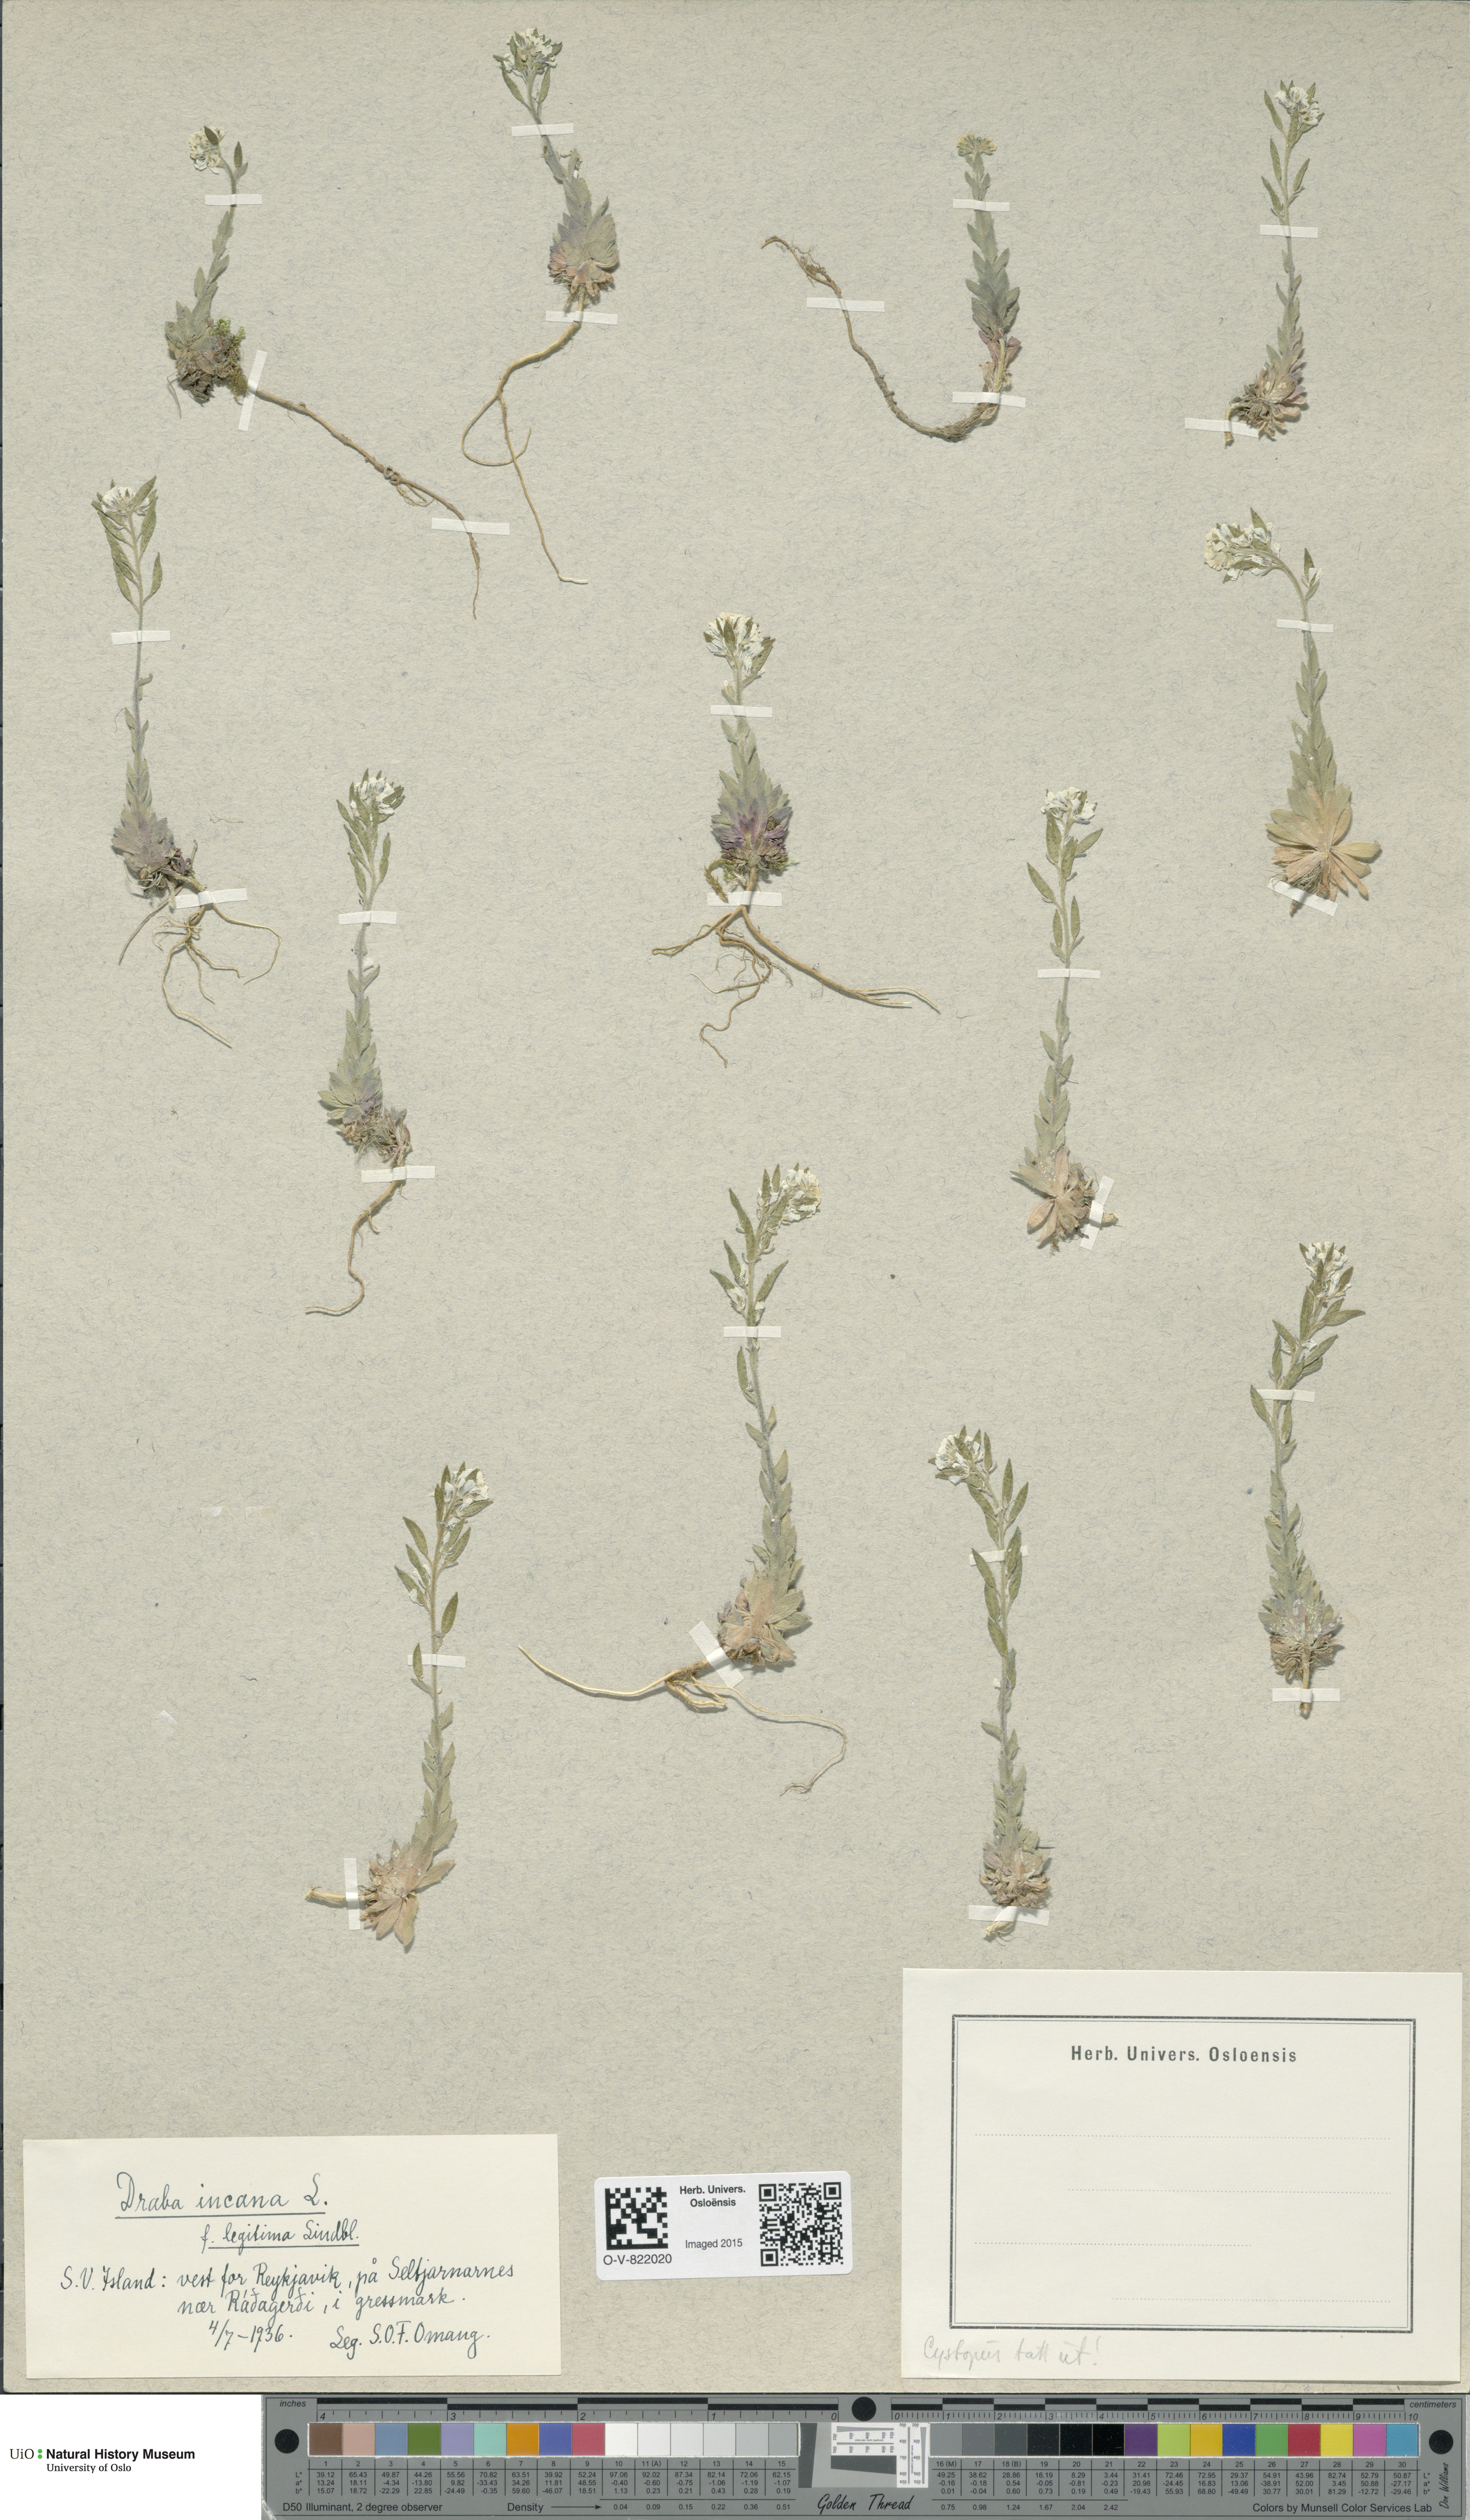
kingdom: Plantae
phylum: Tracheophyta
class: Magnoliopsida
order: Brassicales
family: Brassicaceae
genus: Draba
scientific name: Draba incana
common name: Hoary whitlow-grass
